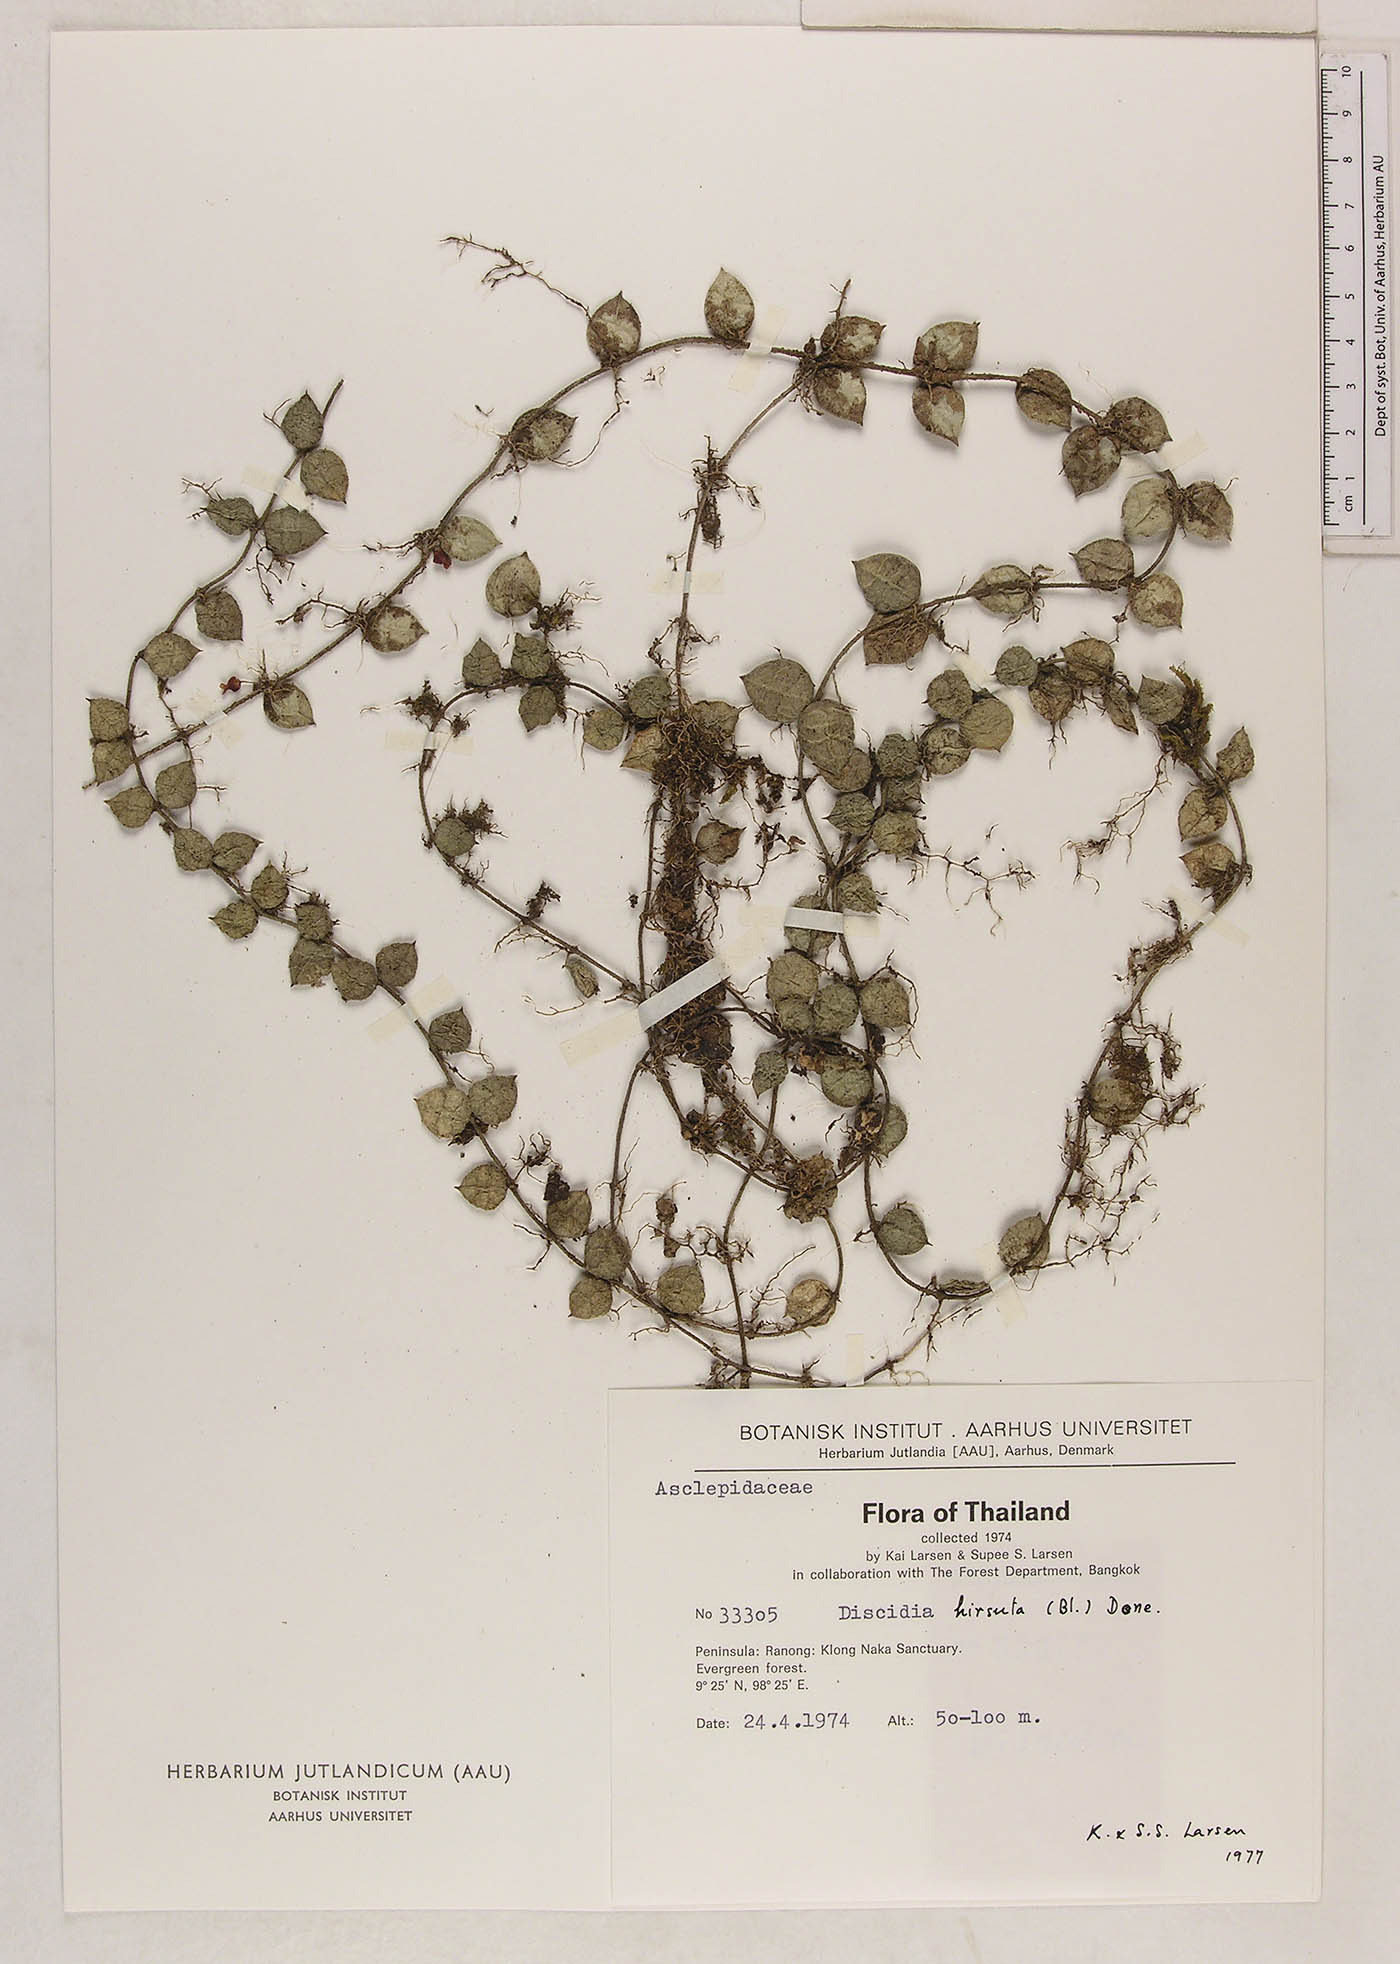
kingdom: Plantae
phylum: Tracheophyta
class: Magnoliopsida
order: Gentianales
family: Apocynaceae
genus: Dischidia
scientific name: Dischidia hirsuta
